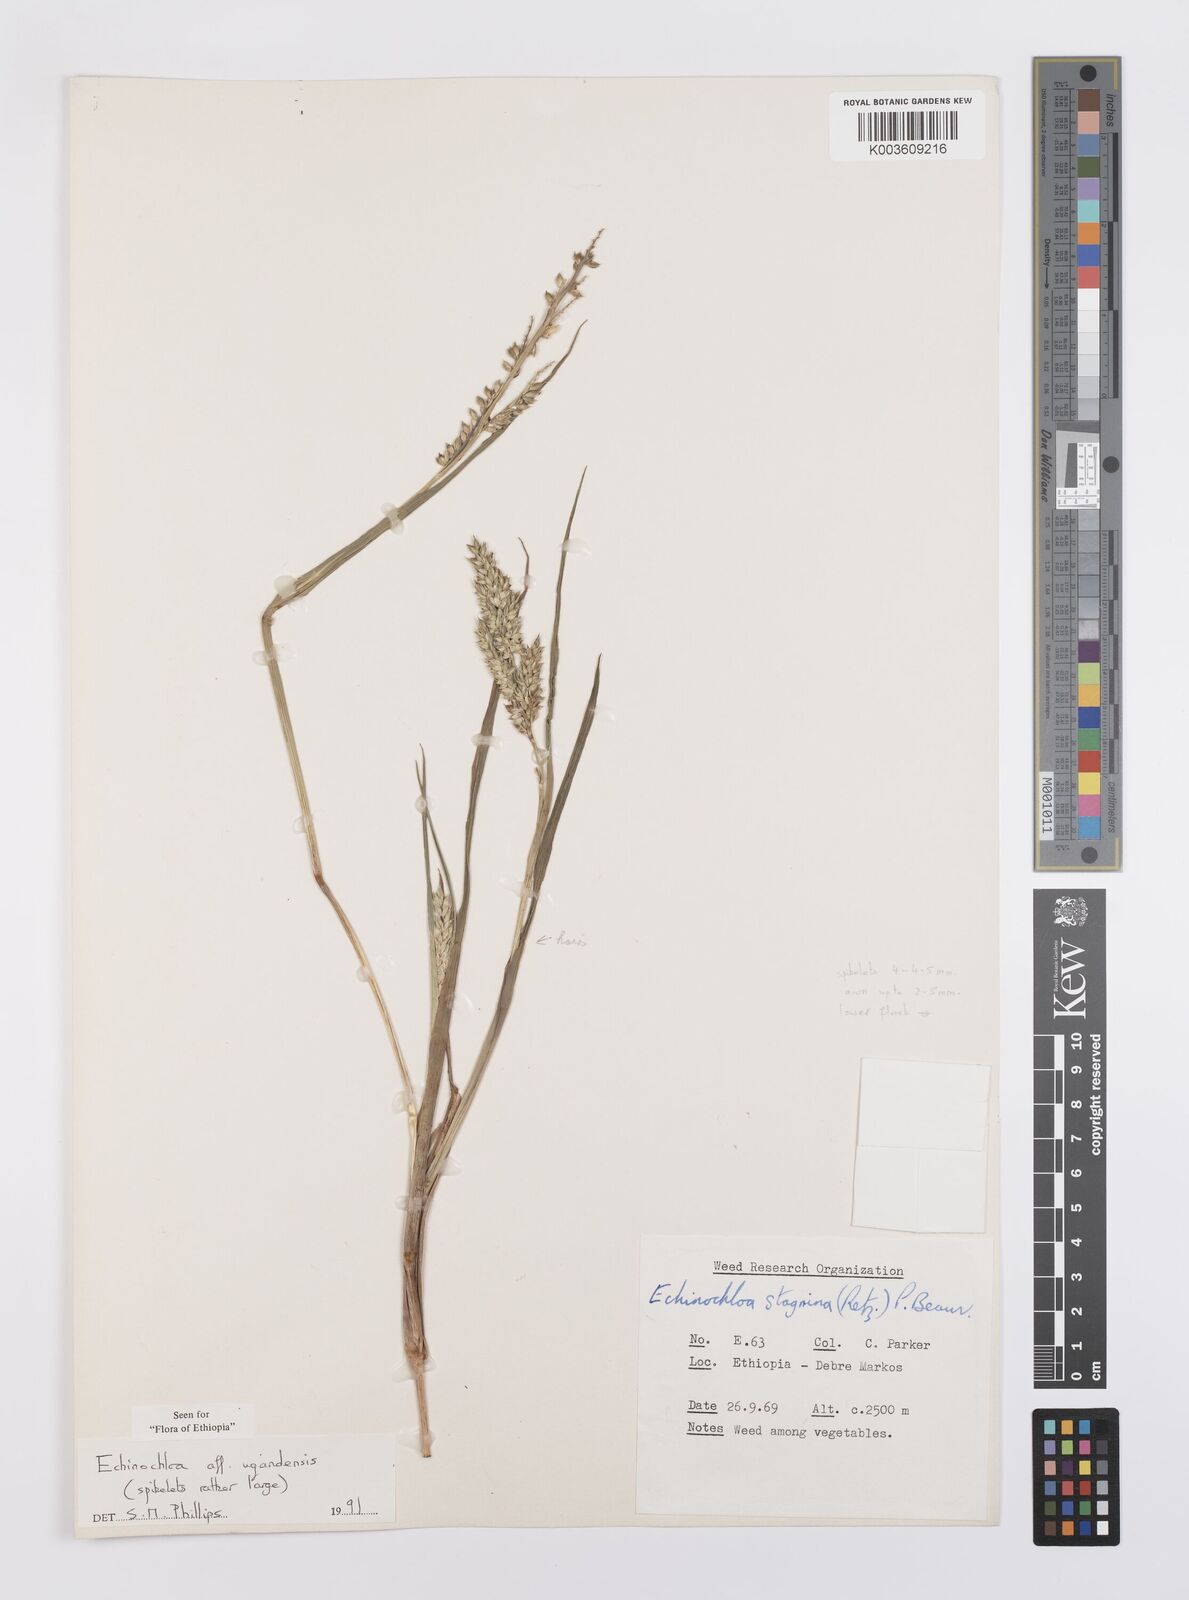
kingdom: Plantae
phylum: Tracheophyta
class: Liliopsida
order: Poales
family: Poaceae
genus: Echinochloa
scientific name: Echinochloa ugandensis
